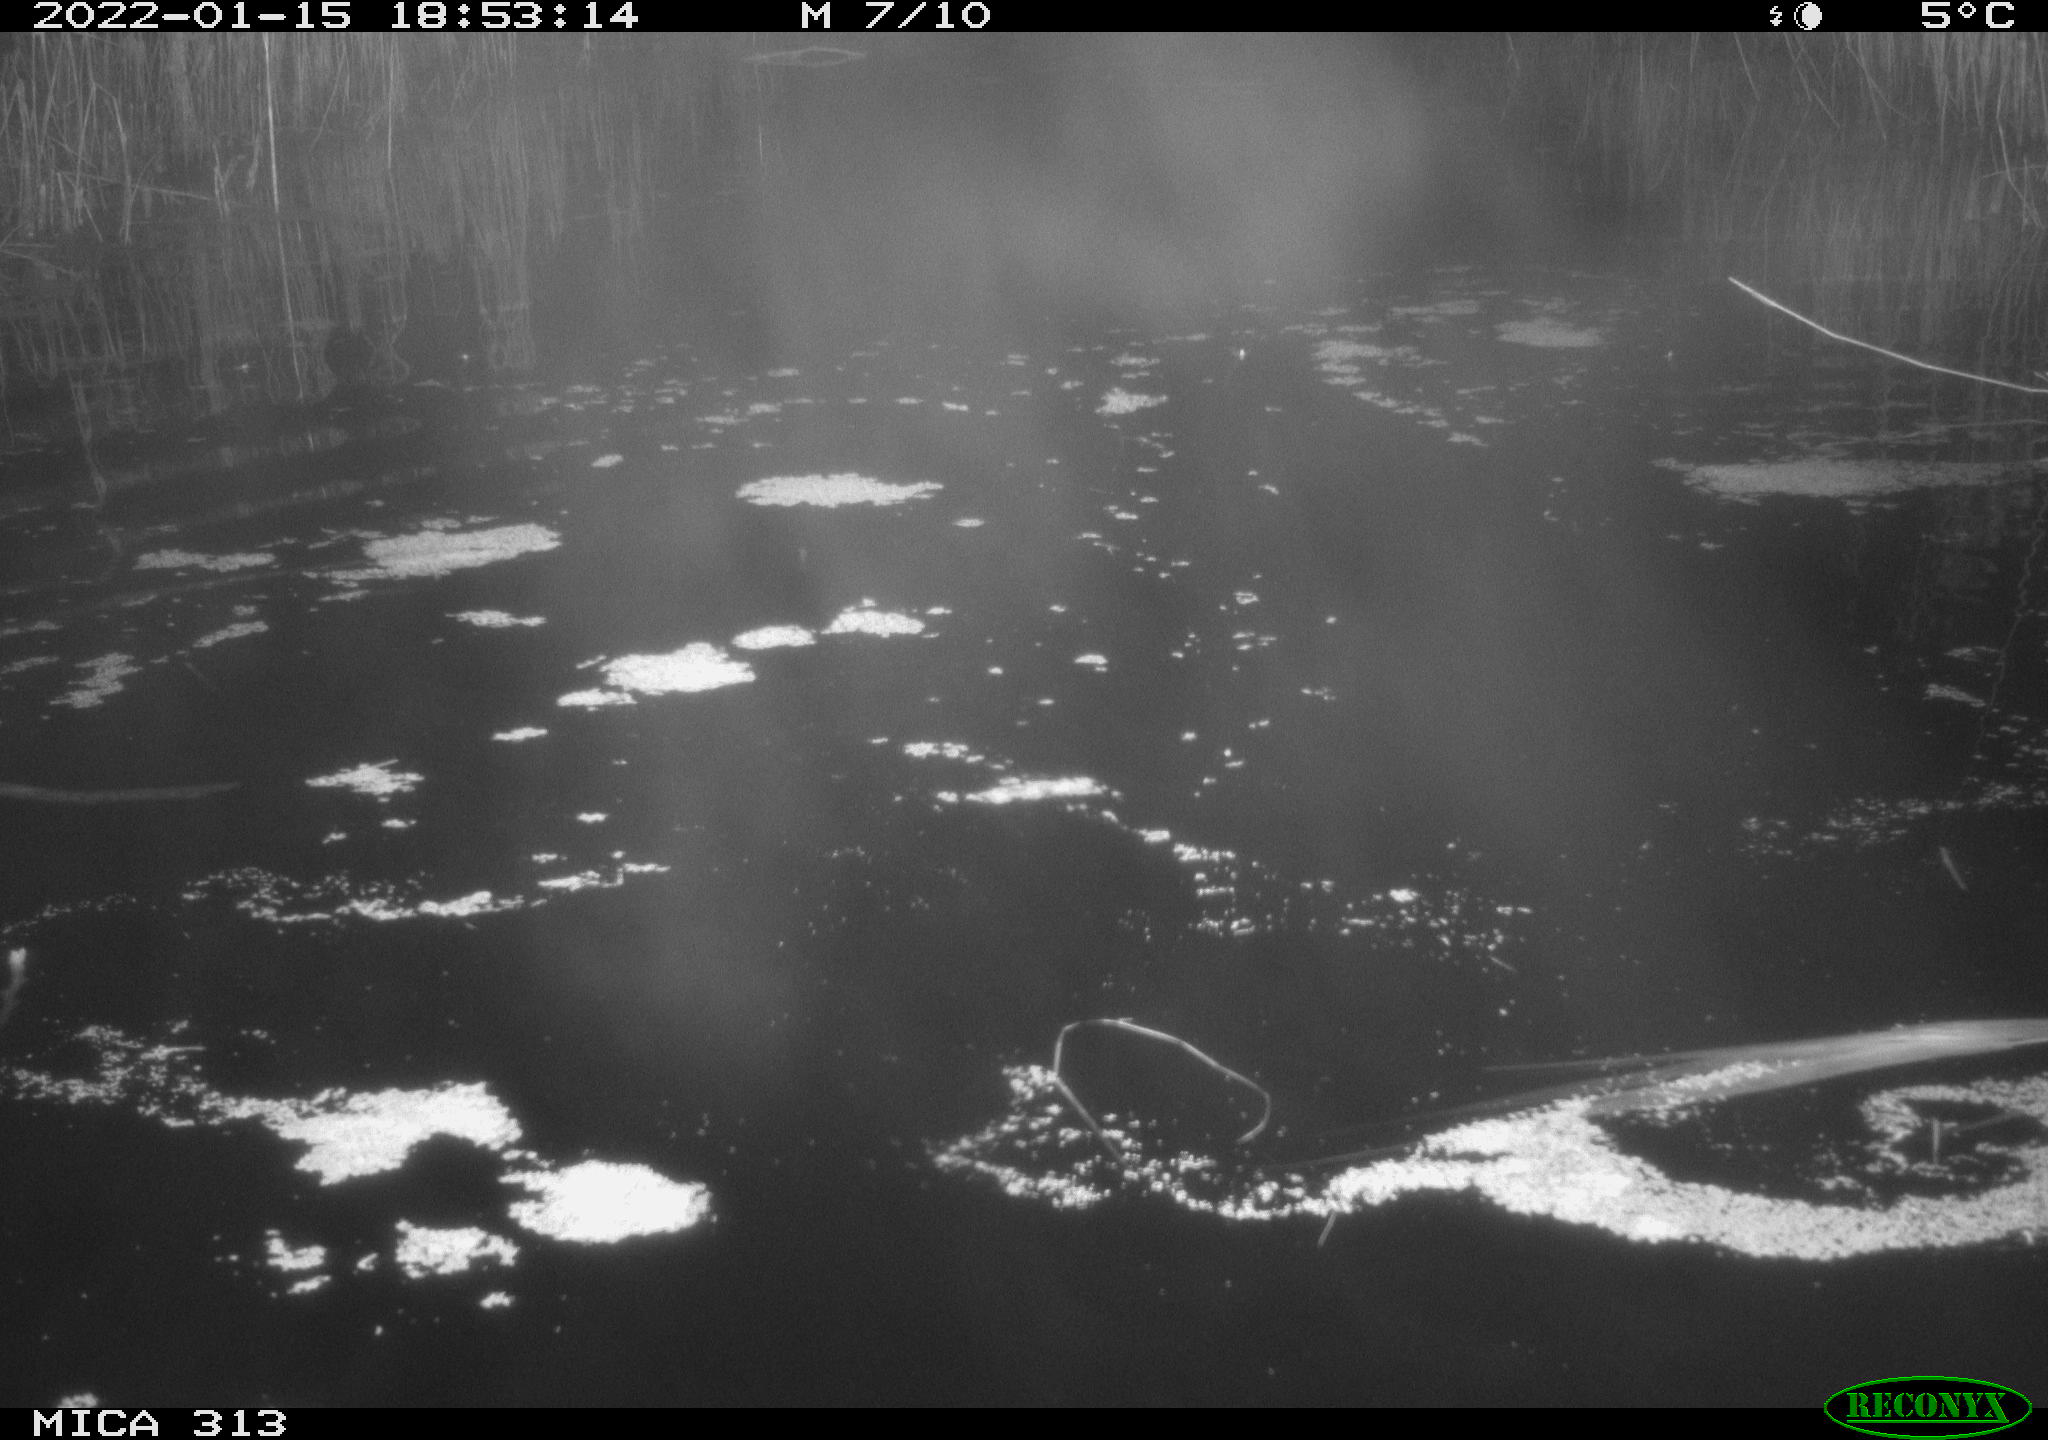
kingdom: Animalia
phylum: Chordata
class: Mammalia
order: Rodentia
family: Muridae
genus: Rattus
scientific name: Rattus norvegicus
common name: Brown rat
